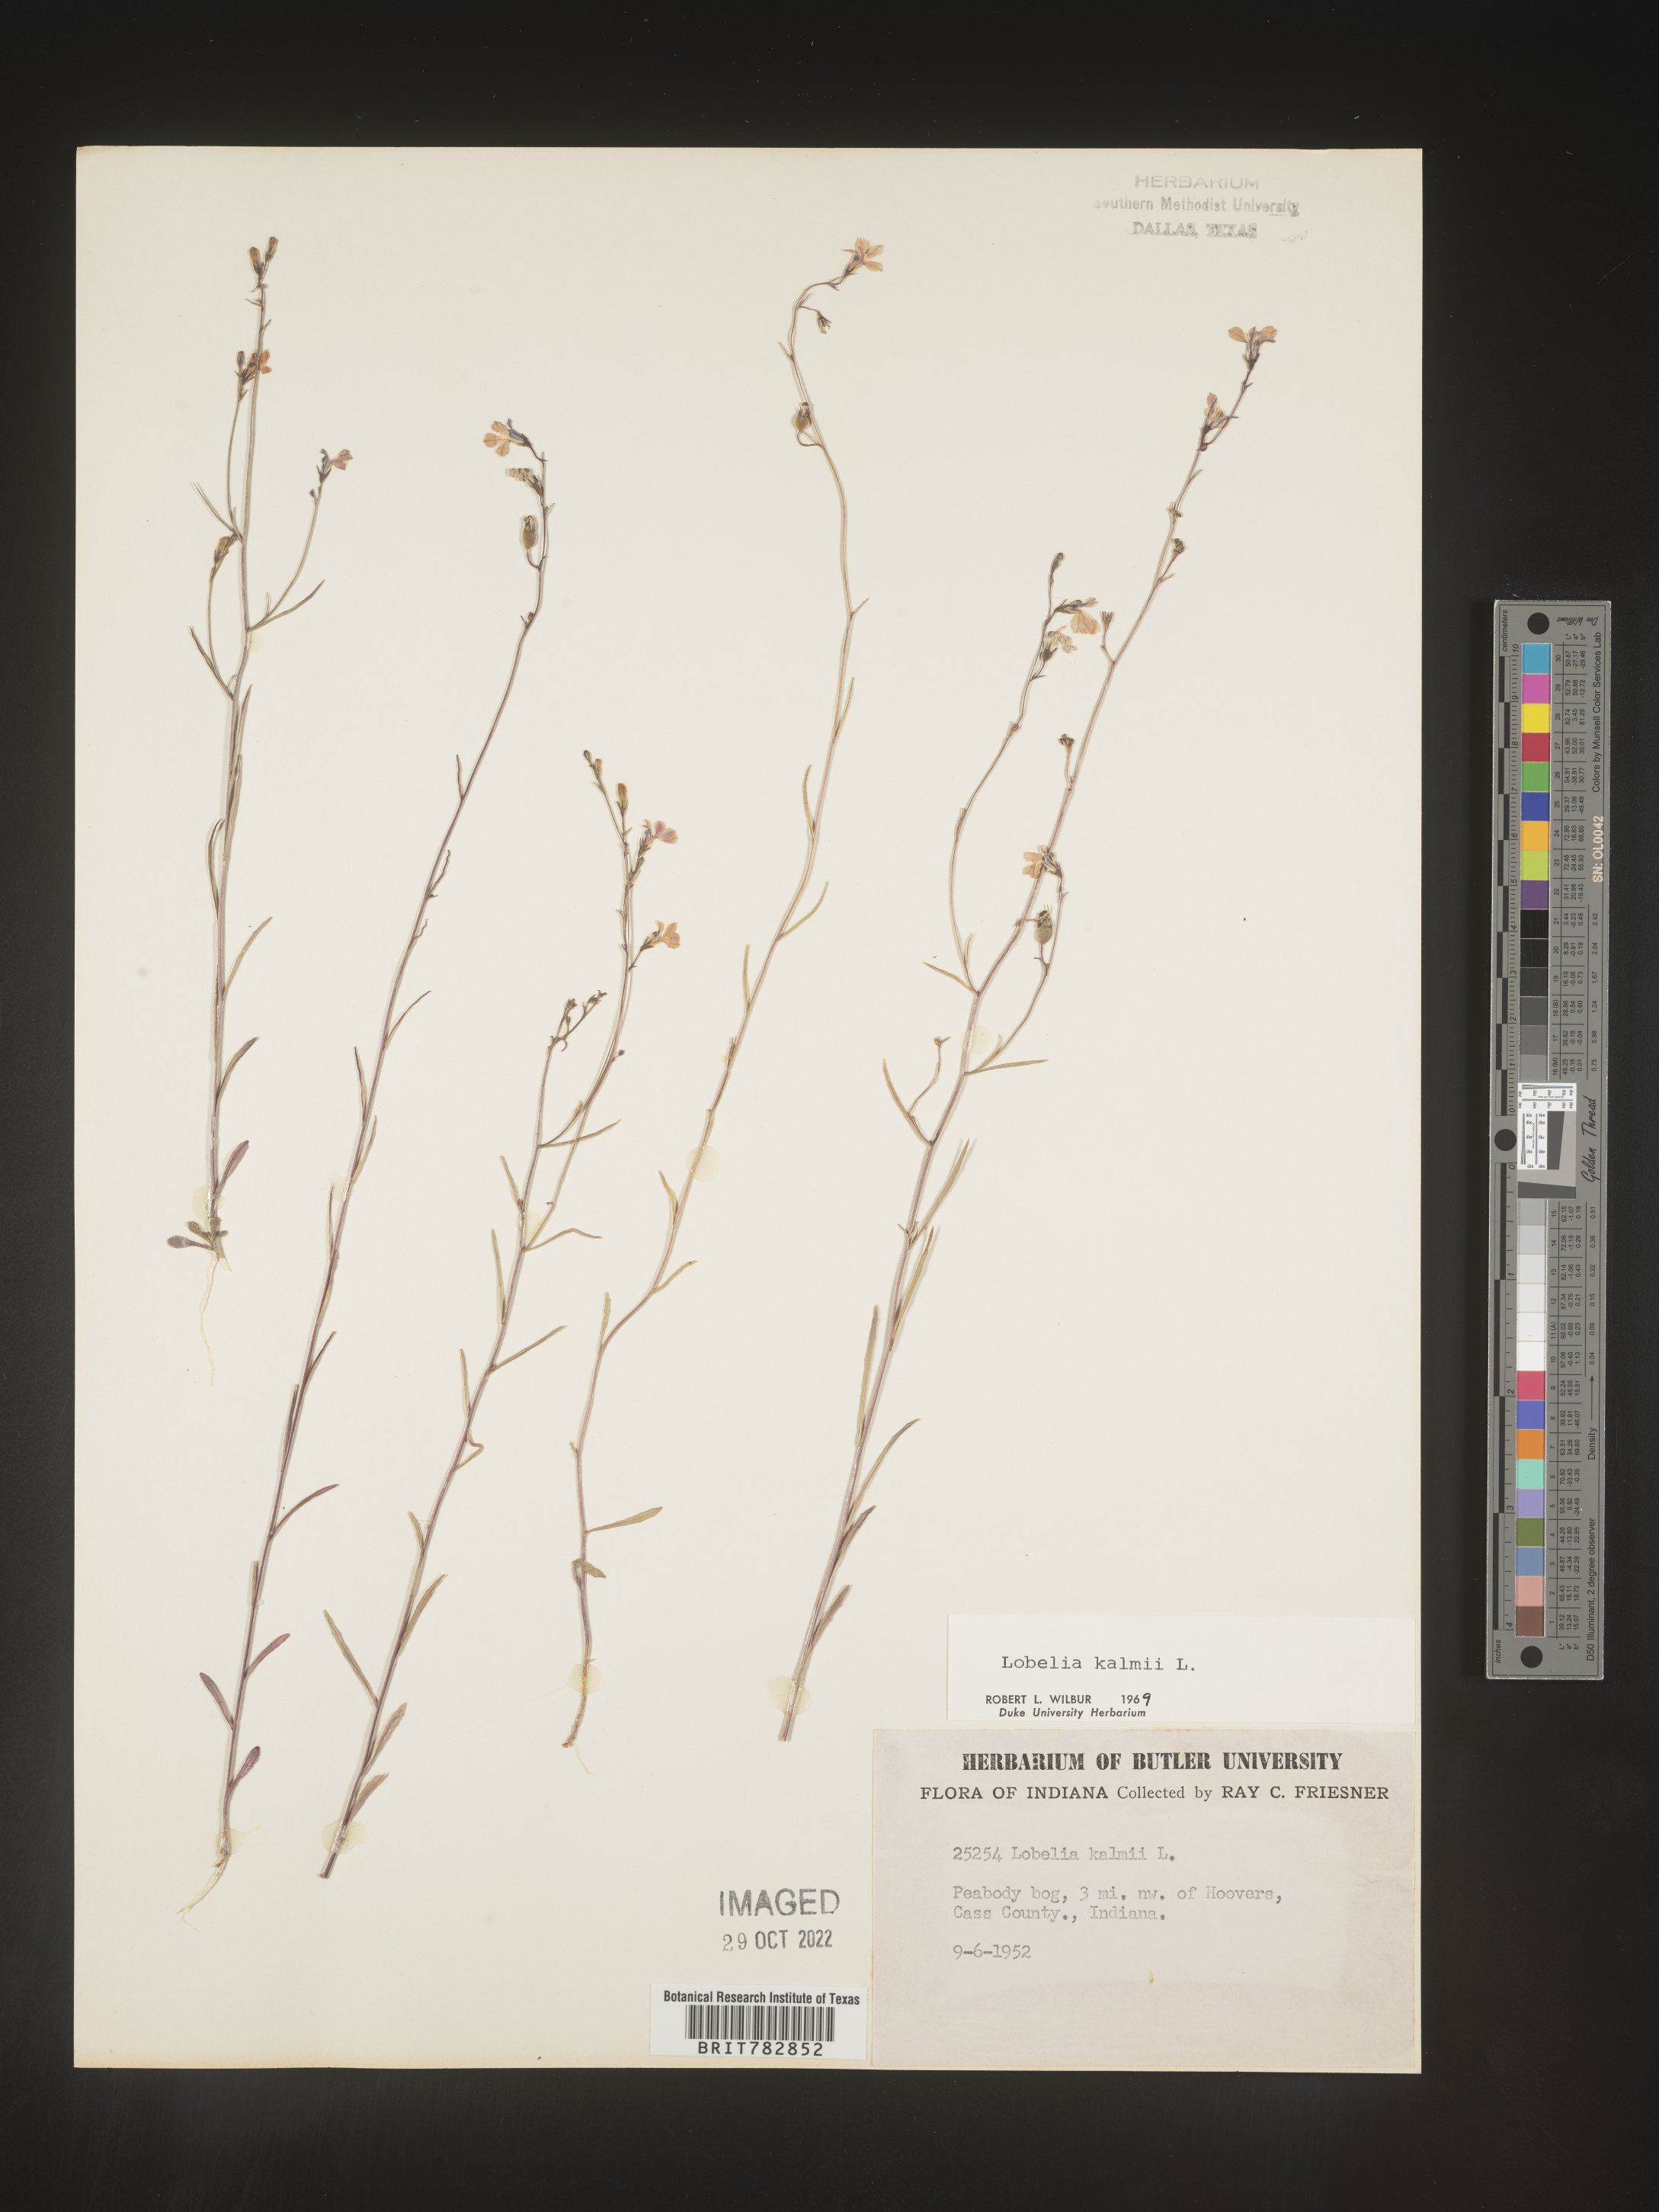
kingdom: Plantae
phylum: Tracheophyta
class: Magnoliopsida
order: Asterales
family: Campanulaceae
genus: Lobelia
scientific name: Lobelia
